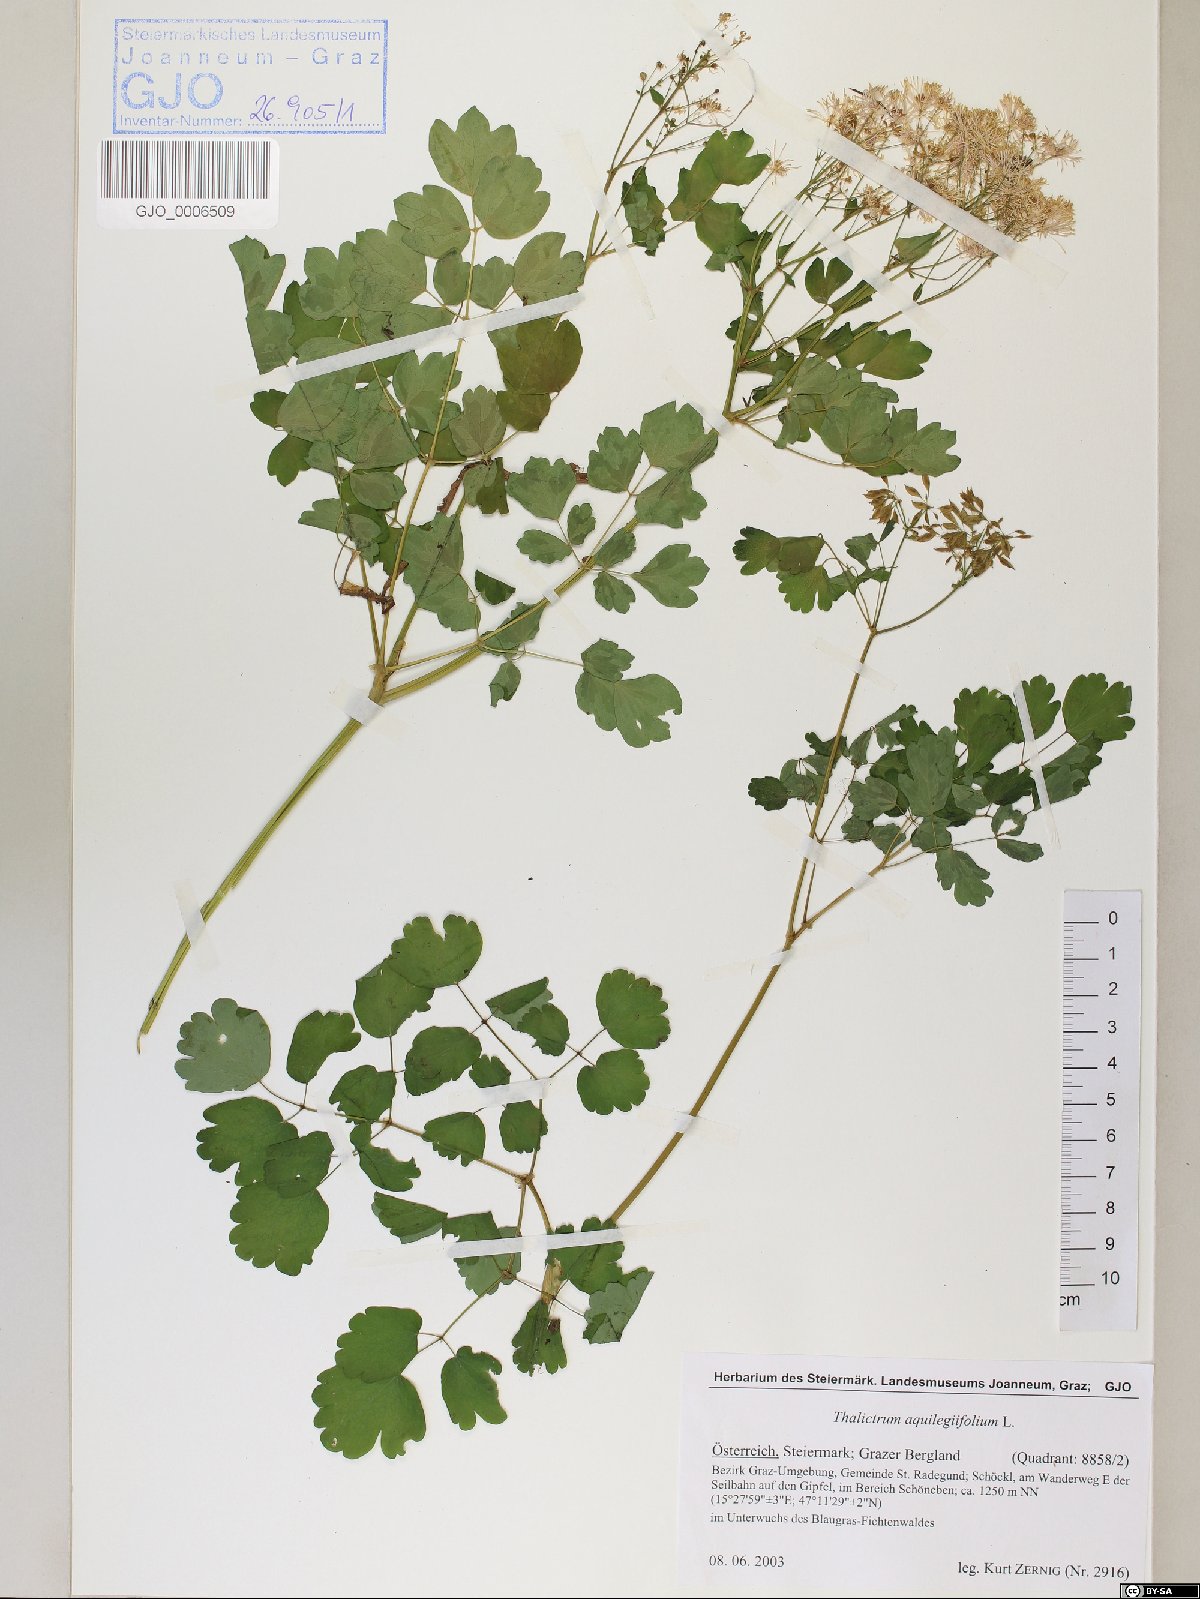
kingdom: Plantae
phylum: Tracheophyta
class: Magnoliopsida
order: Ranunculales
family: Ranunculaceae
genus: Thalictrum
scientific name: Thalictrum aquilegiifolium
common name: French meadow-rue
